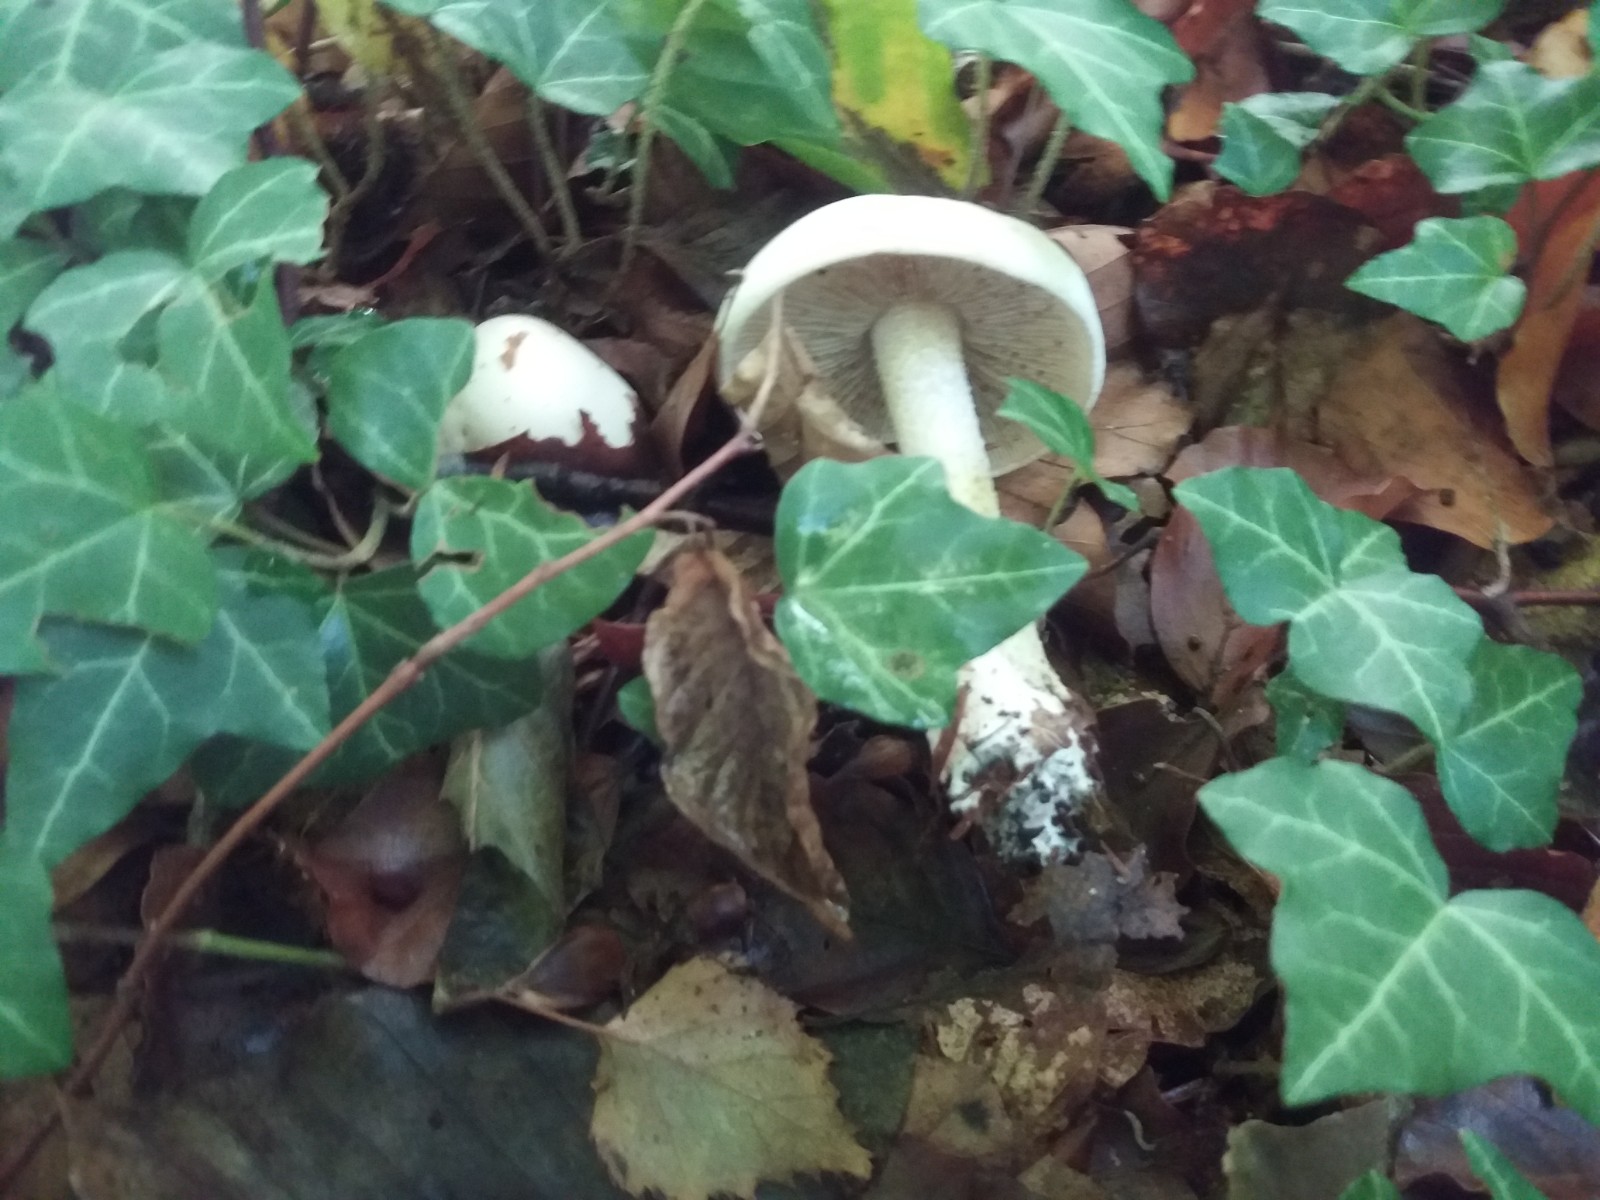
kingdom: Fungi
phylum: Basidiomycota
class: Agaricomycetes
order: Agaricales
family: Hymenogastraceae
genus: Hebeloma
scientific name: Hebeloma eburneum
